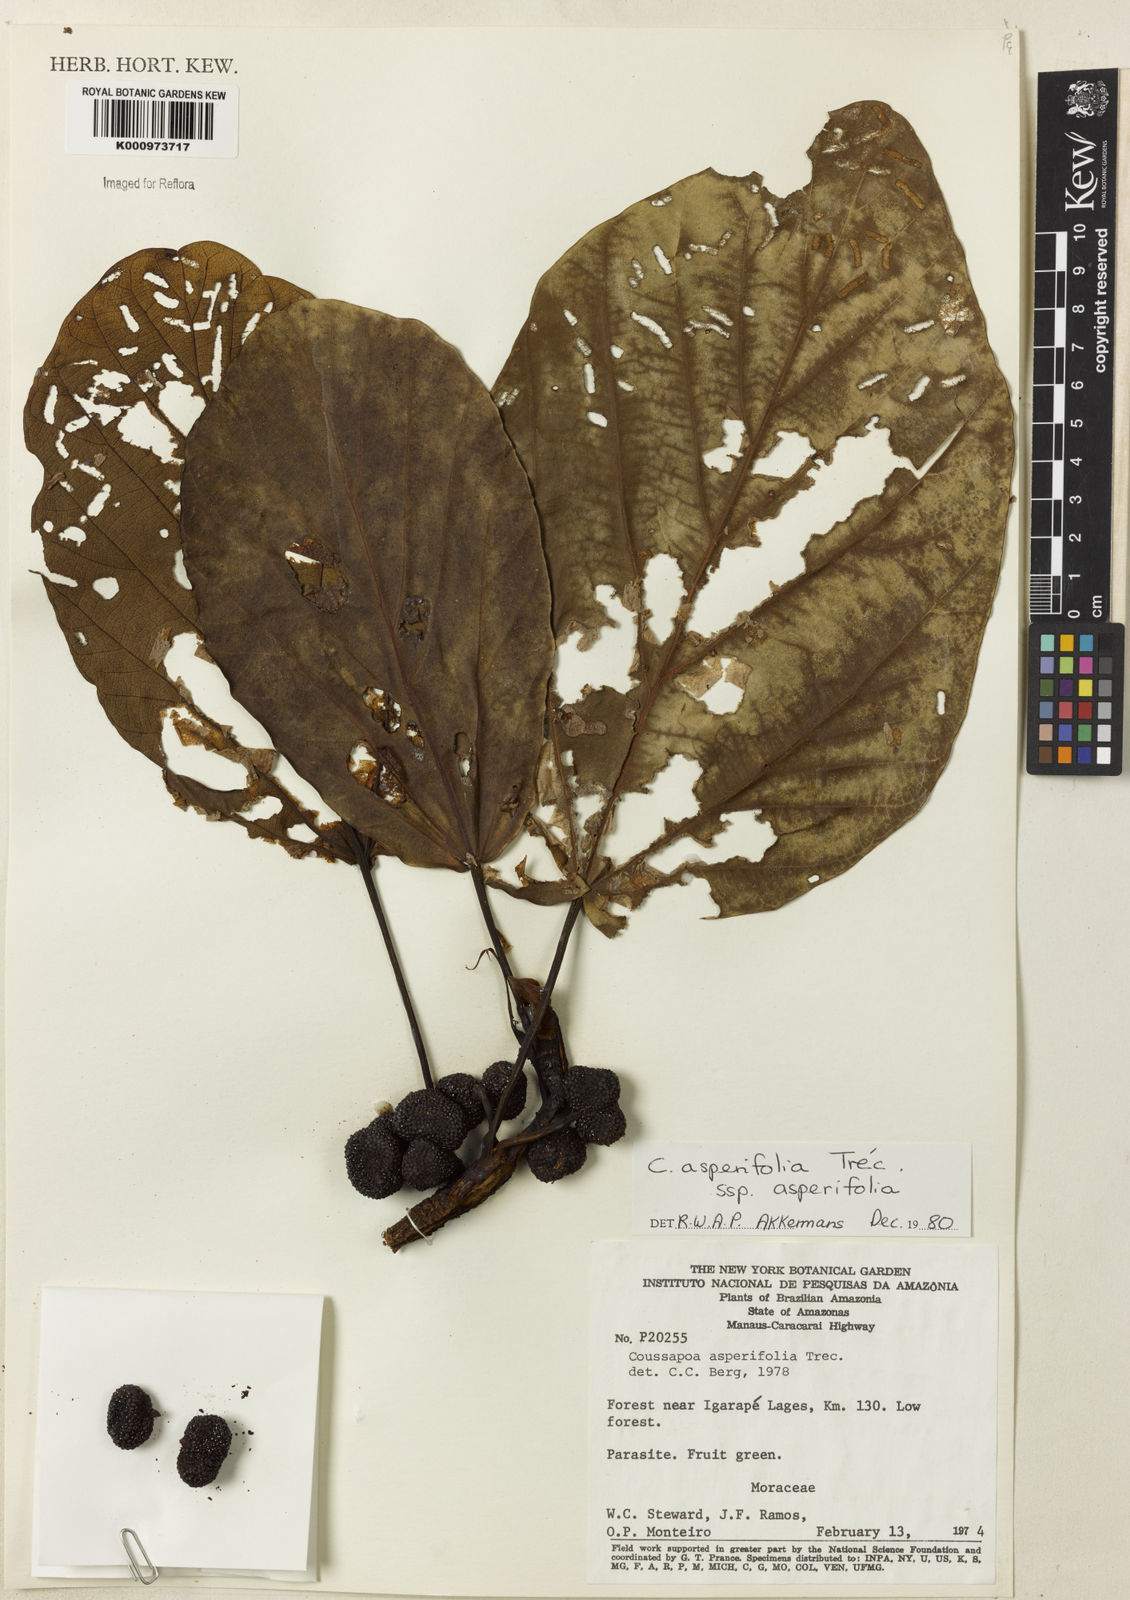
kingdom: Plantae
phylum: Tracheophyta
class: Magnoliopsida
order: Rosales
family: Urticaceae
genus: Coussapoa
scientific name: Coussapoa
